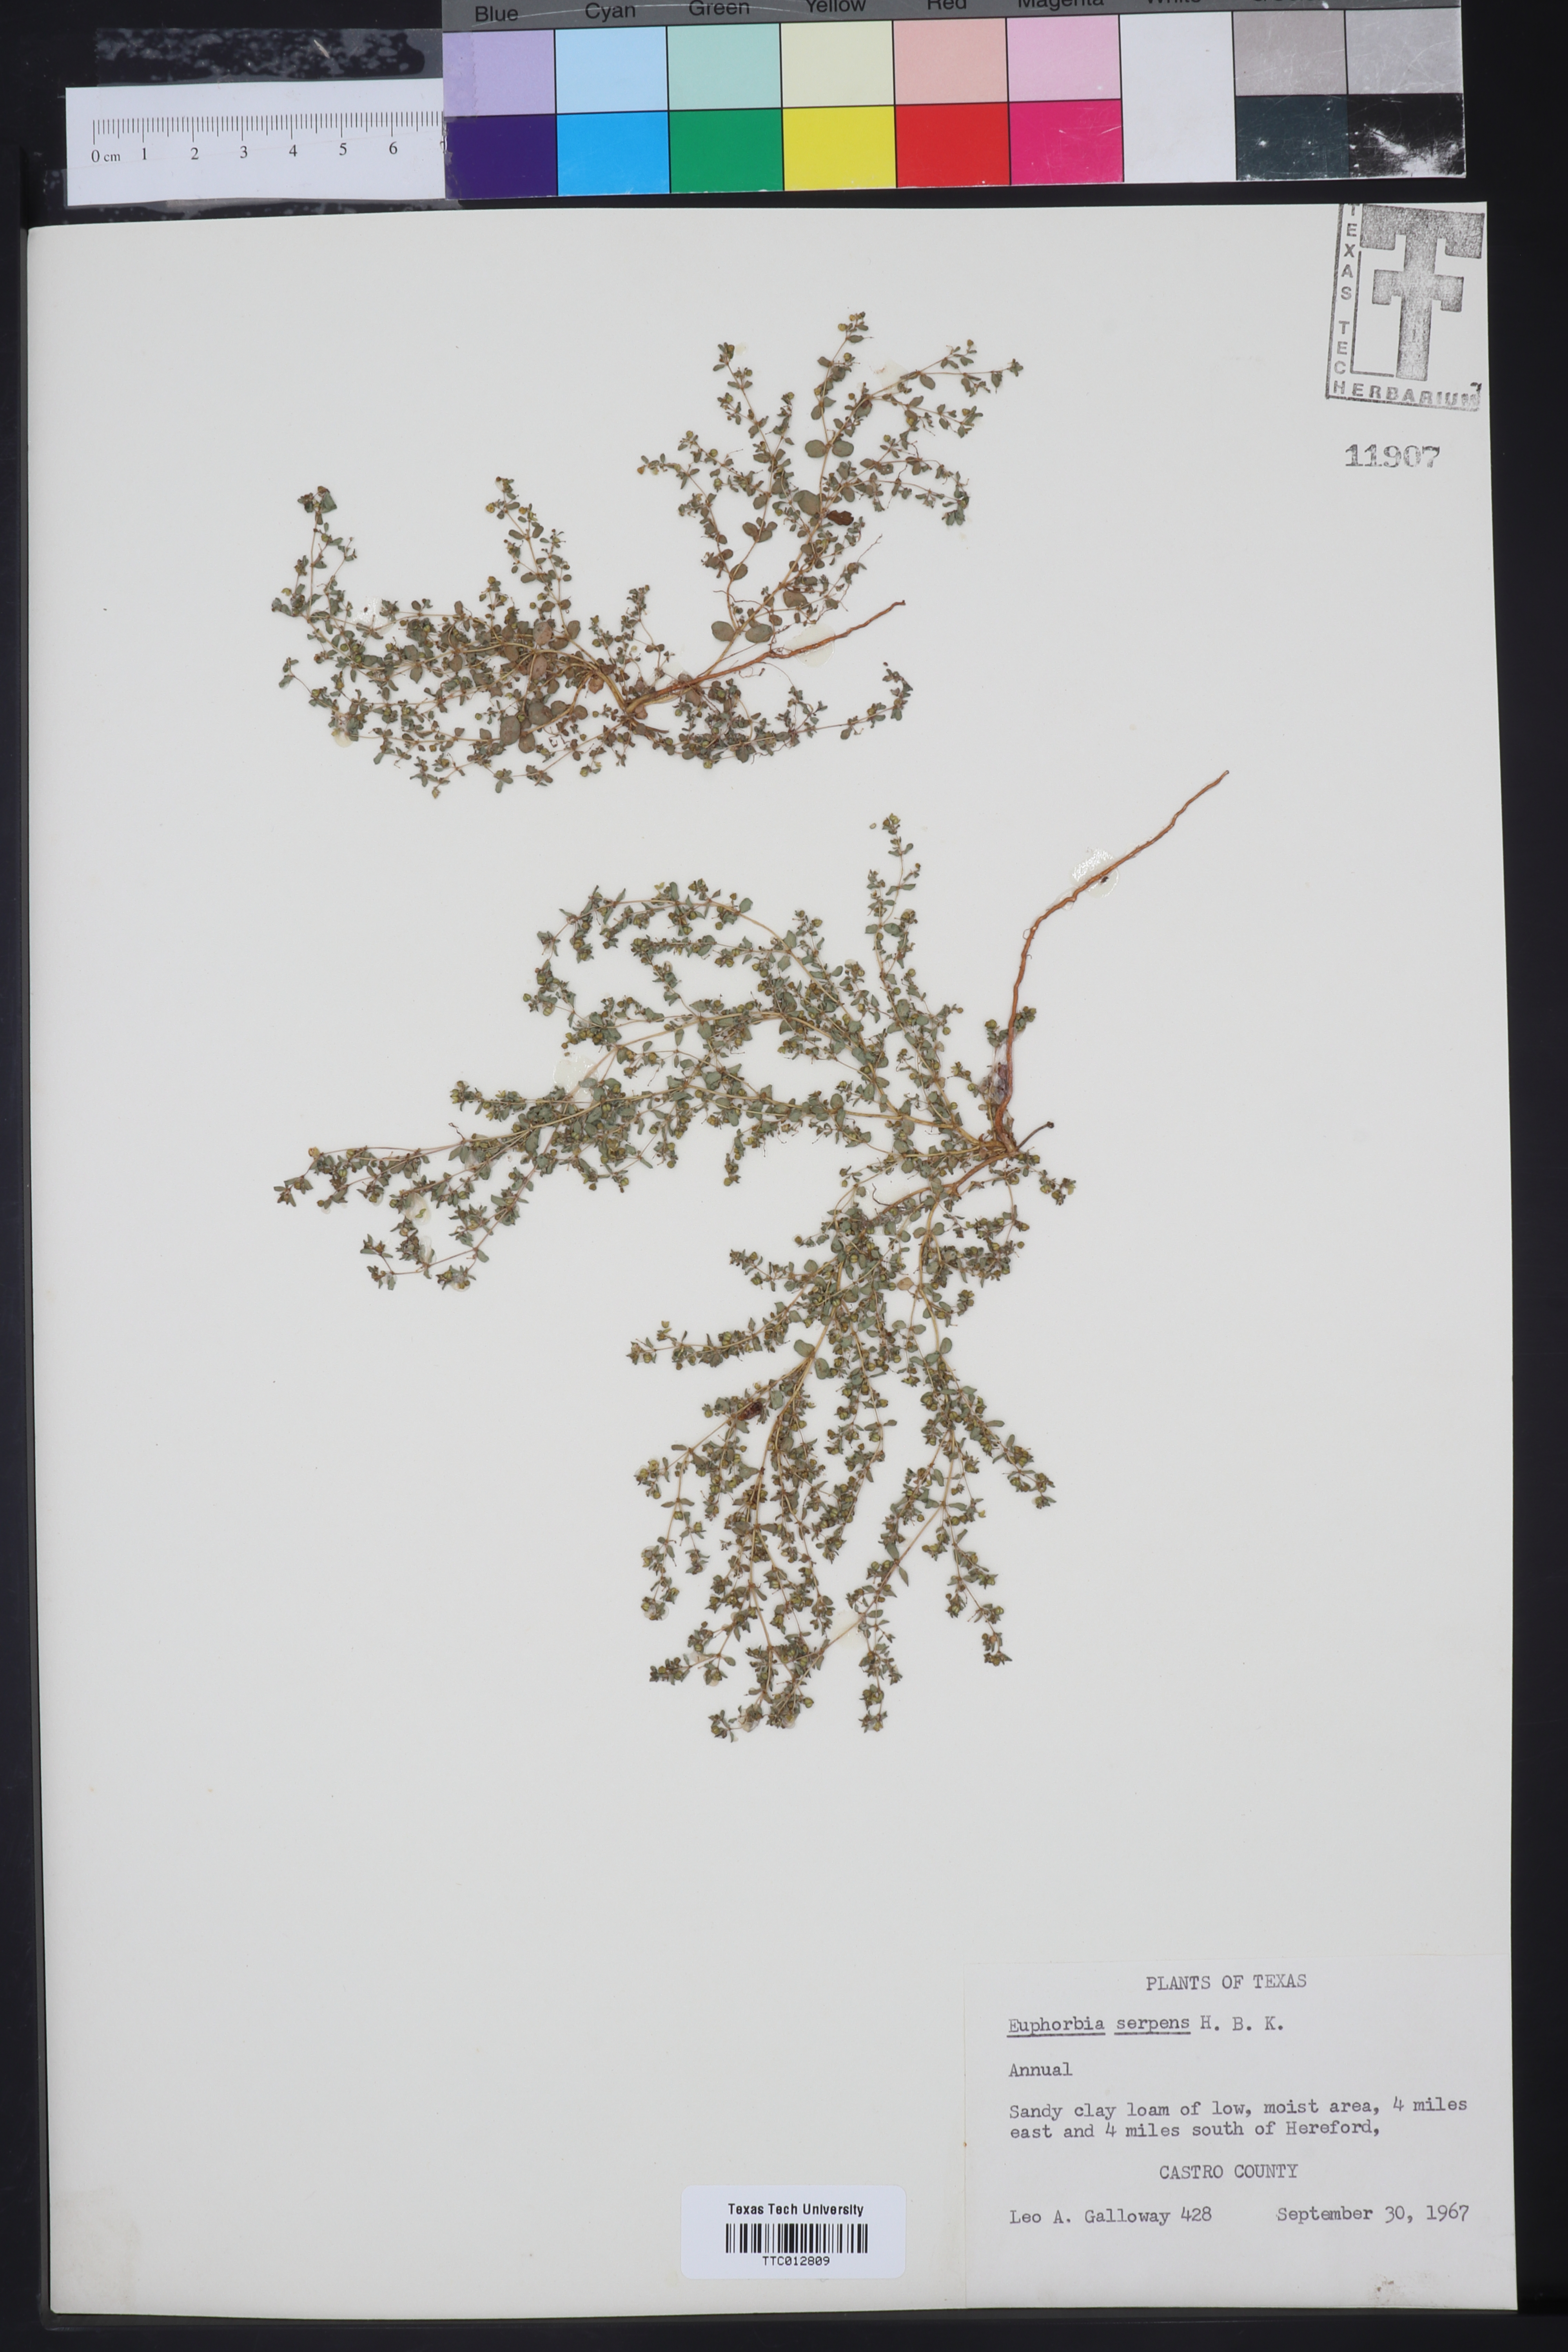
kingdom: Plantae
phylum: Tracheophyta
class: Magnoliopsida
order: Malpighiales
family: Euphorbiaceae
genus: Euphorbia
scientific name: Euphorbia serpens
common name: Matted sandmat
